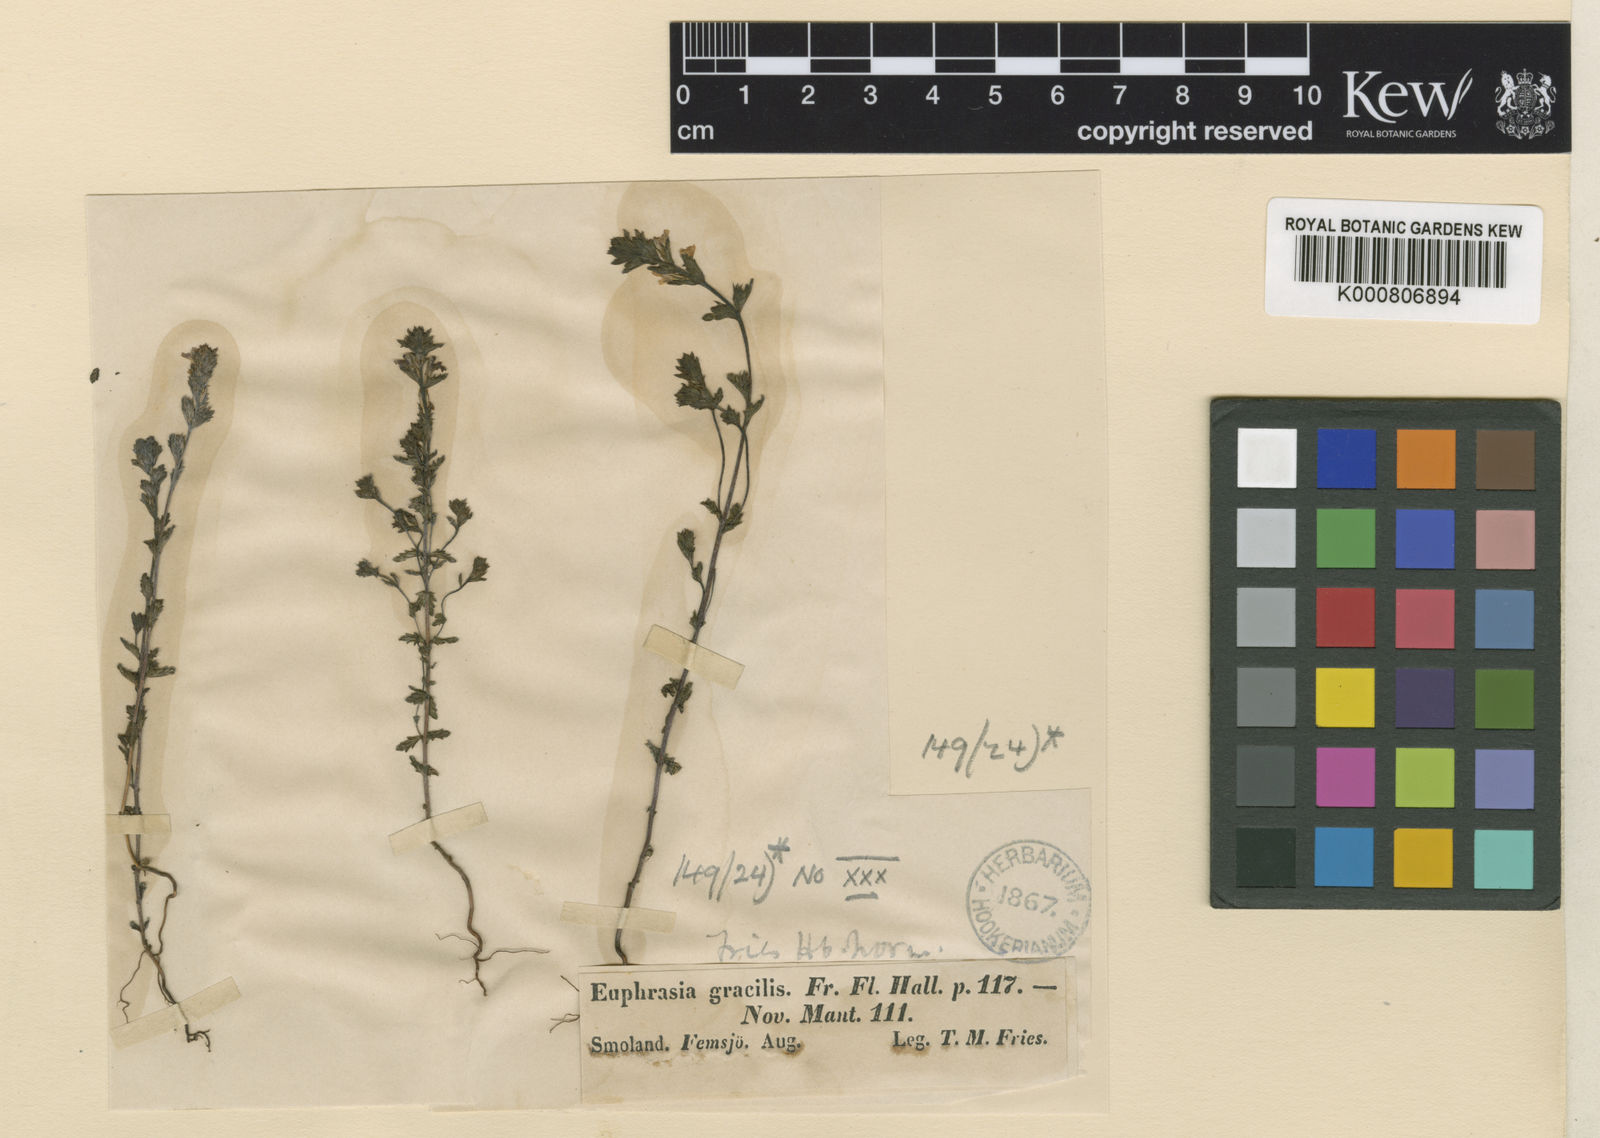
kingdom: Plantae
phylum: Tracheophyta
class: Magnoliopsida
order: Lamiales
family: Orobanchaceae
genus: Euphrasia
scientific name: Euphrasia micrantha
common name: Northern eyebright
